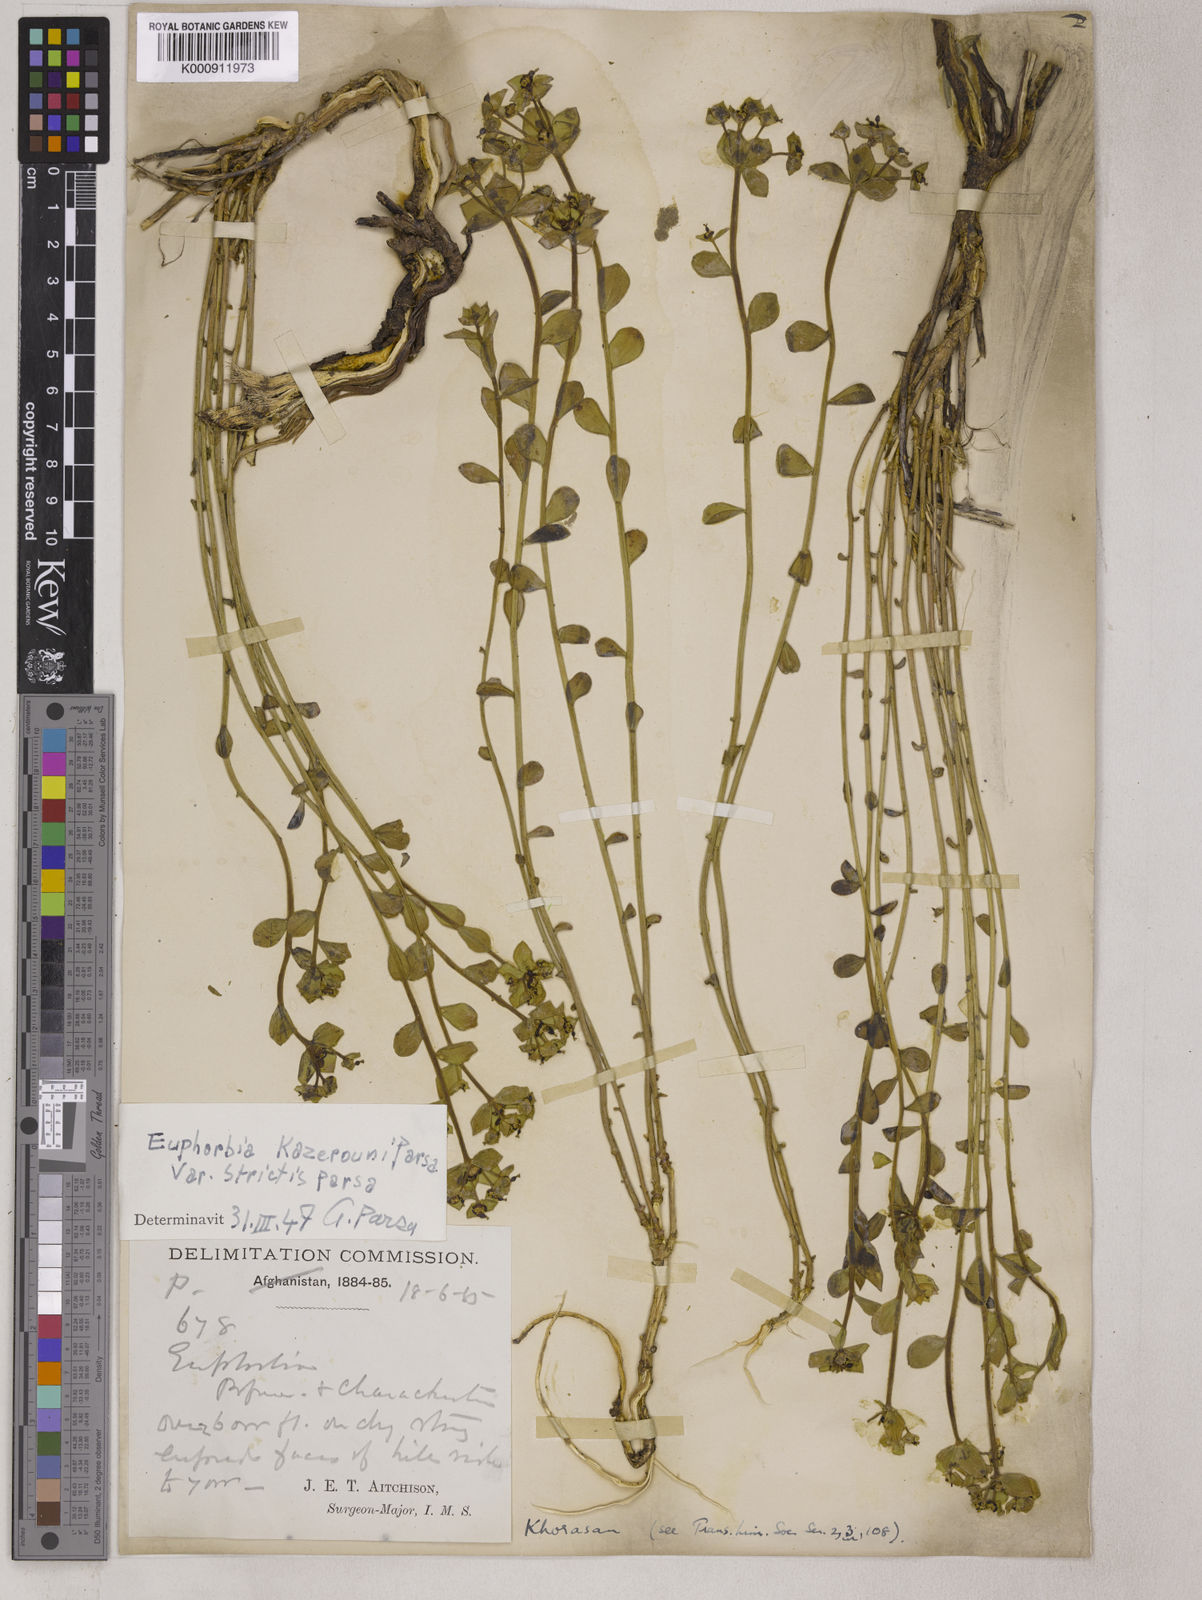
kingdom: Plantae
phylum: Tracheophyta
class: Magnoliopsida
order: Malpighiales
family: Euphorbiaceae
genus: Euphorbia
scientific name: Euphorbia microsciadia
